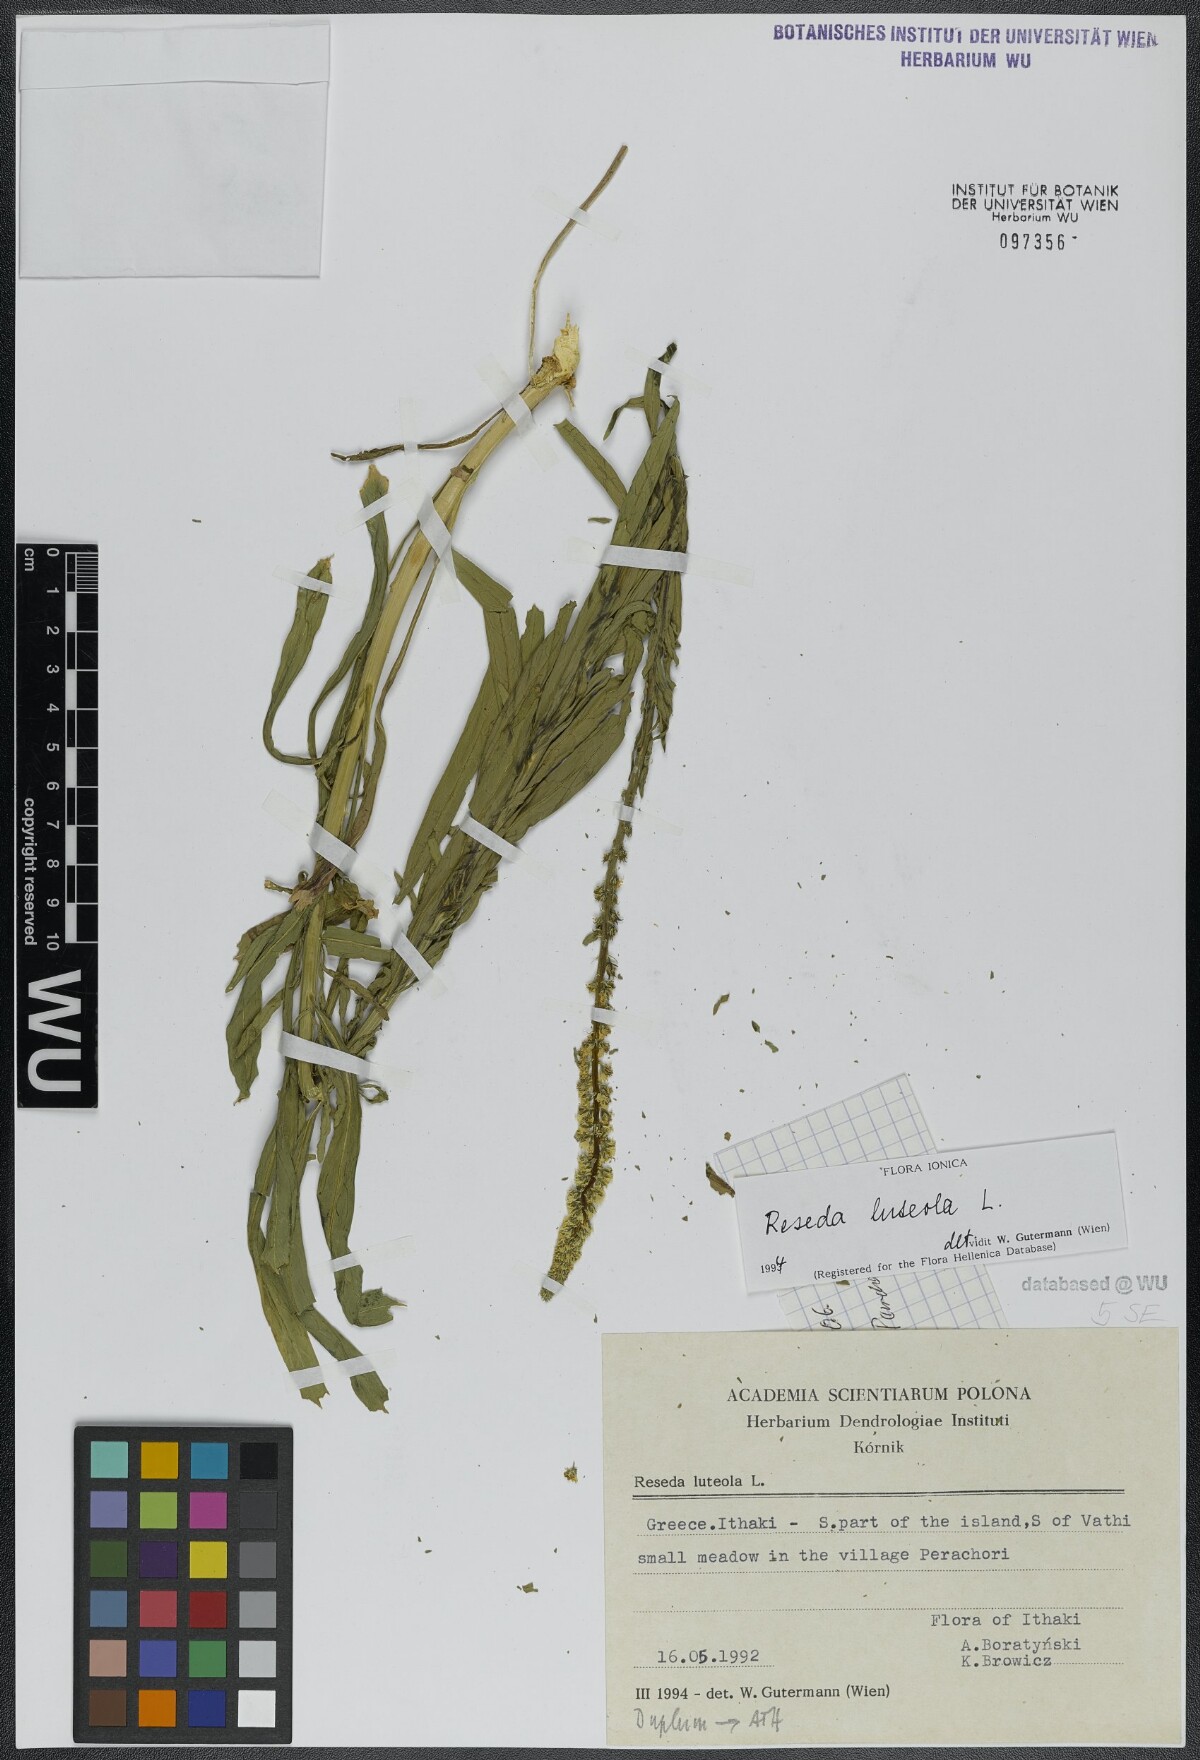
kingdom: Plantae
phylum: Tracheophyta
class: Magnoliopsida
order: Brassicales
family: Resedaceae
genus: Reseda
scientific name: Reseda luteola
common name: Weld
